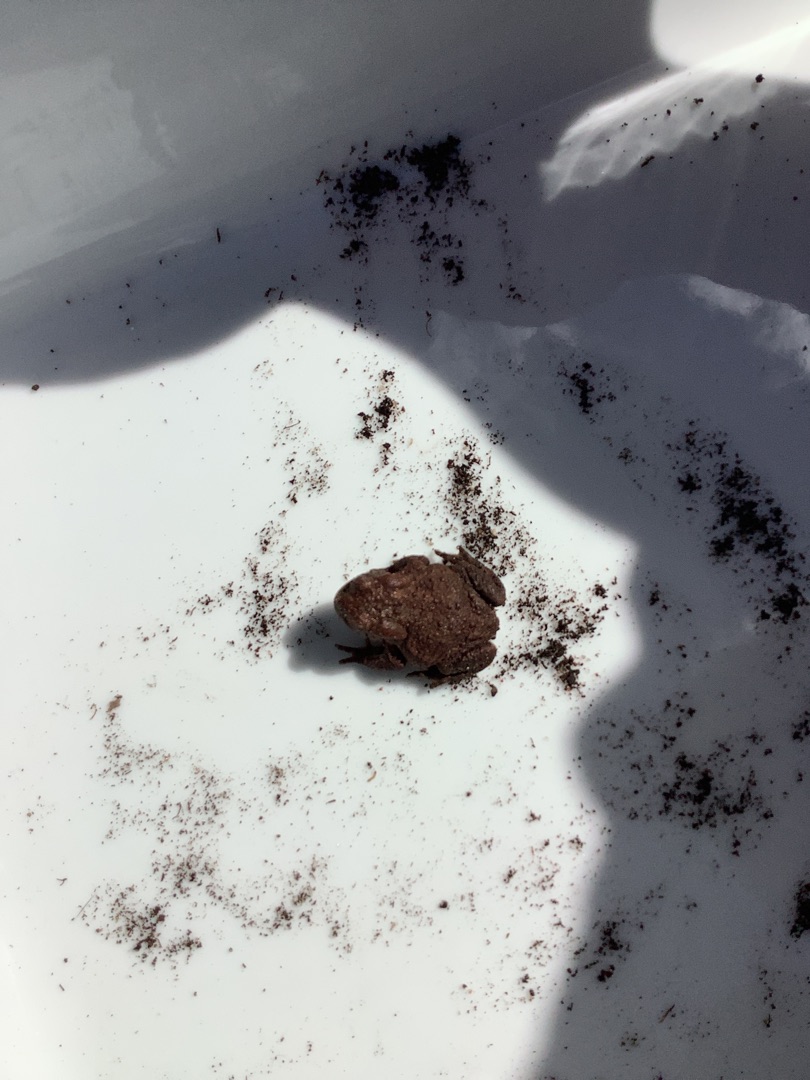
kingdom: Animalia
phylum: Chordata
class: Amphibia
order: Anura
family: Bufonidae
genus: Bufo
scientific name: Bufo bufo
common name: Skrubtudse
